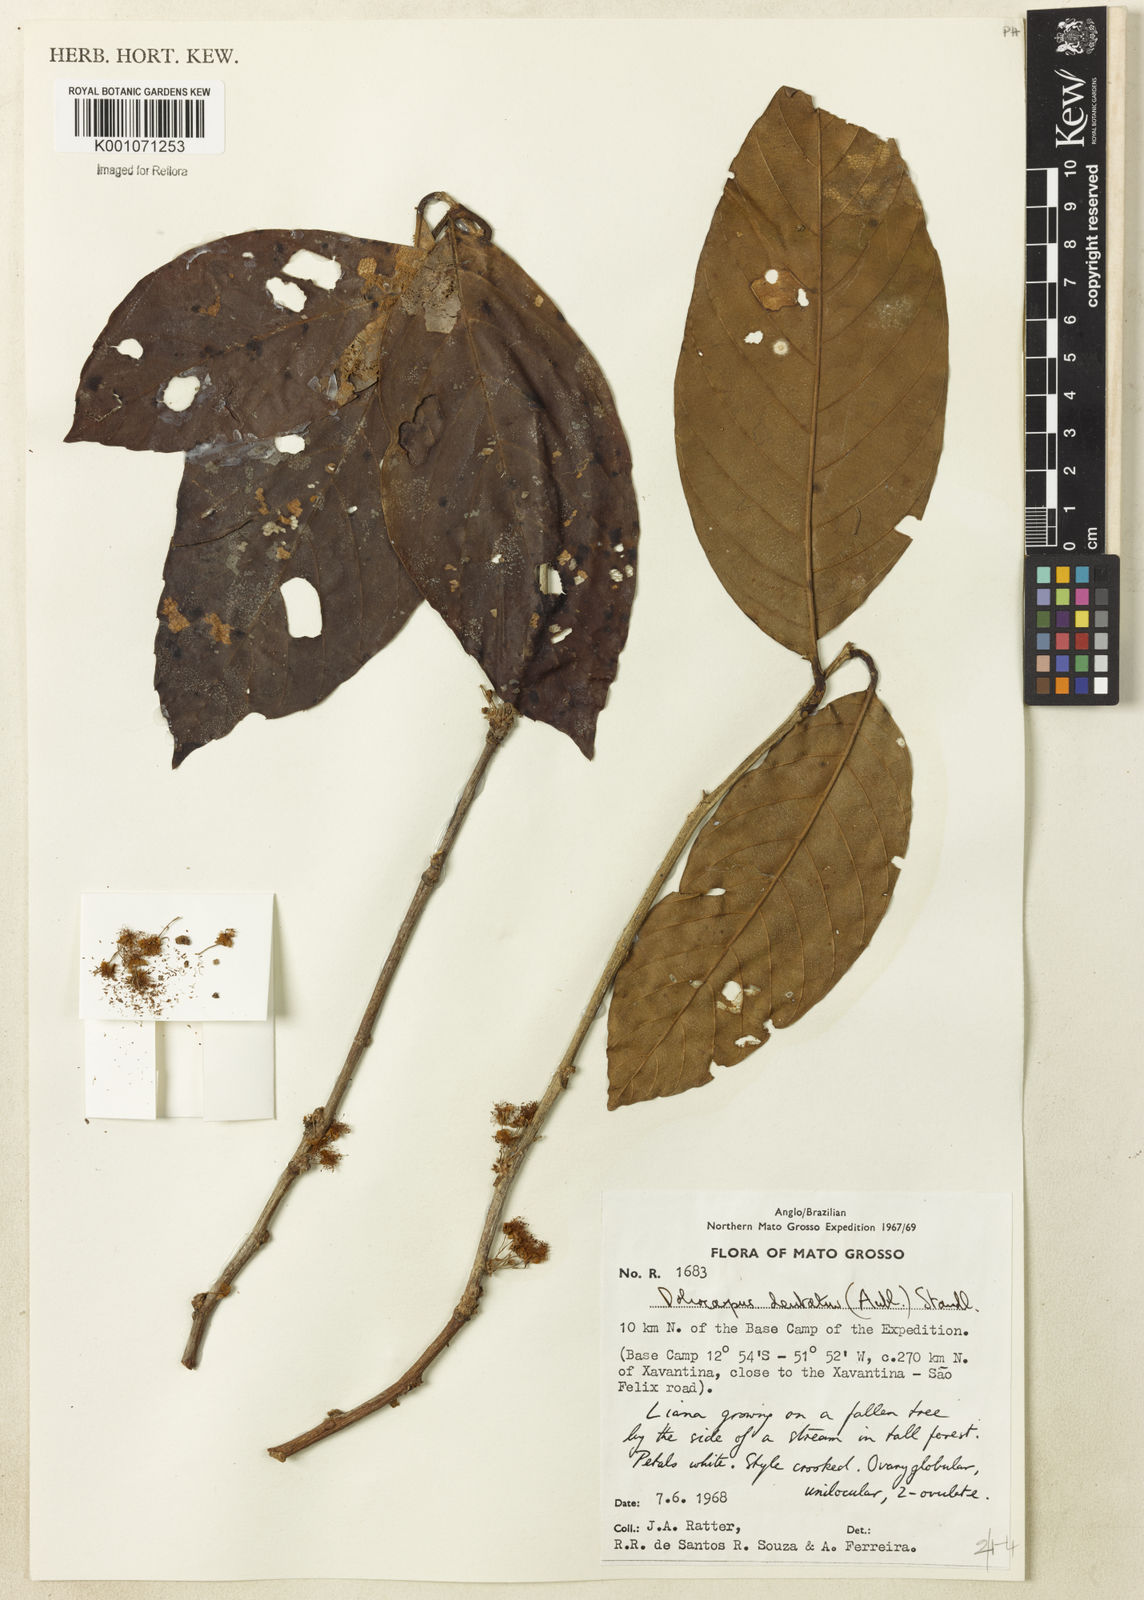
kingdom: Plantae
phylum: Tracheophyta
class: Magnoliopsida
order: Dilleniales
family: Dilleniaceae
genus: Doliocarpus
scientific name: Doliocarpus dentatus
